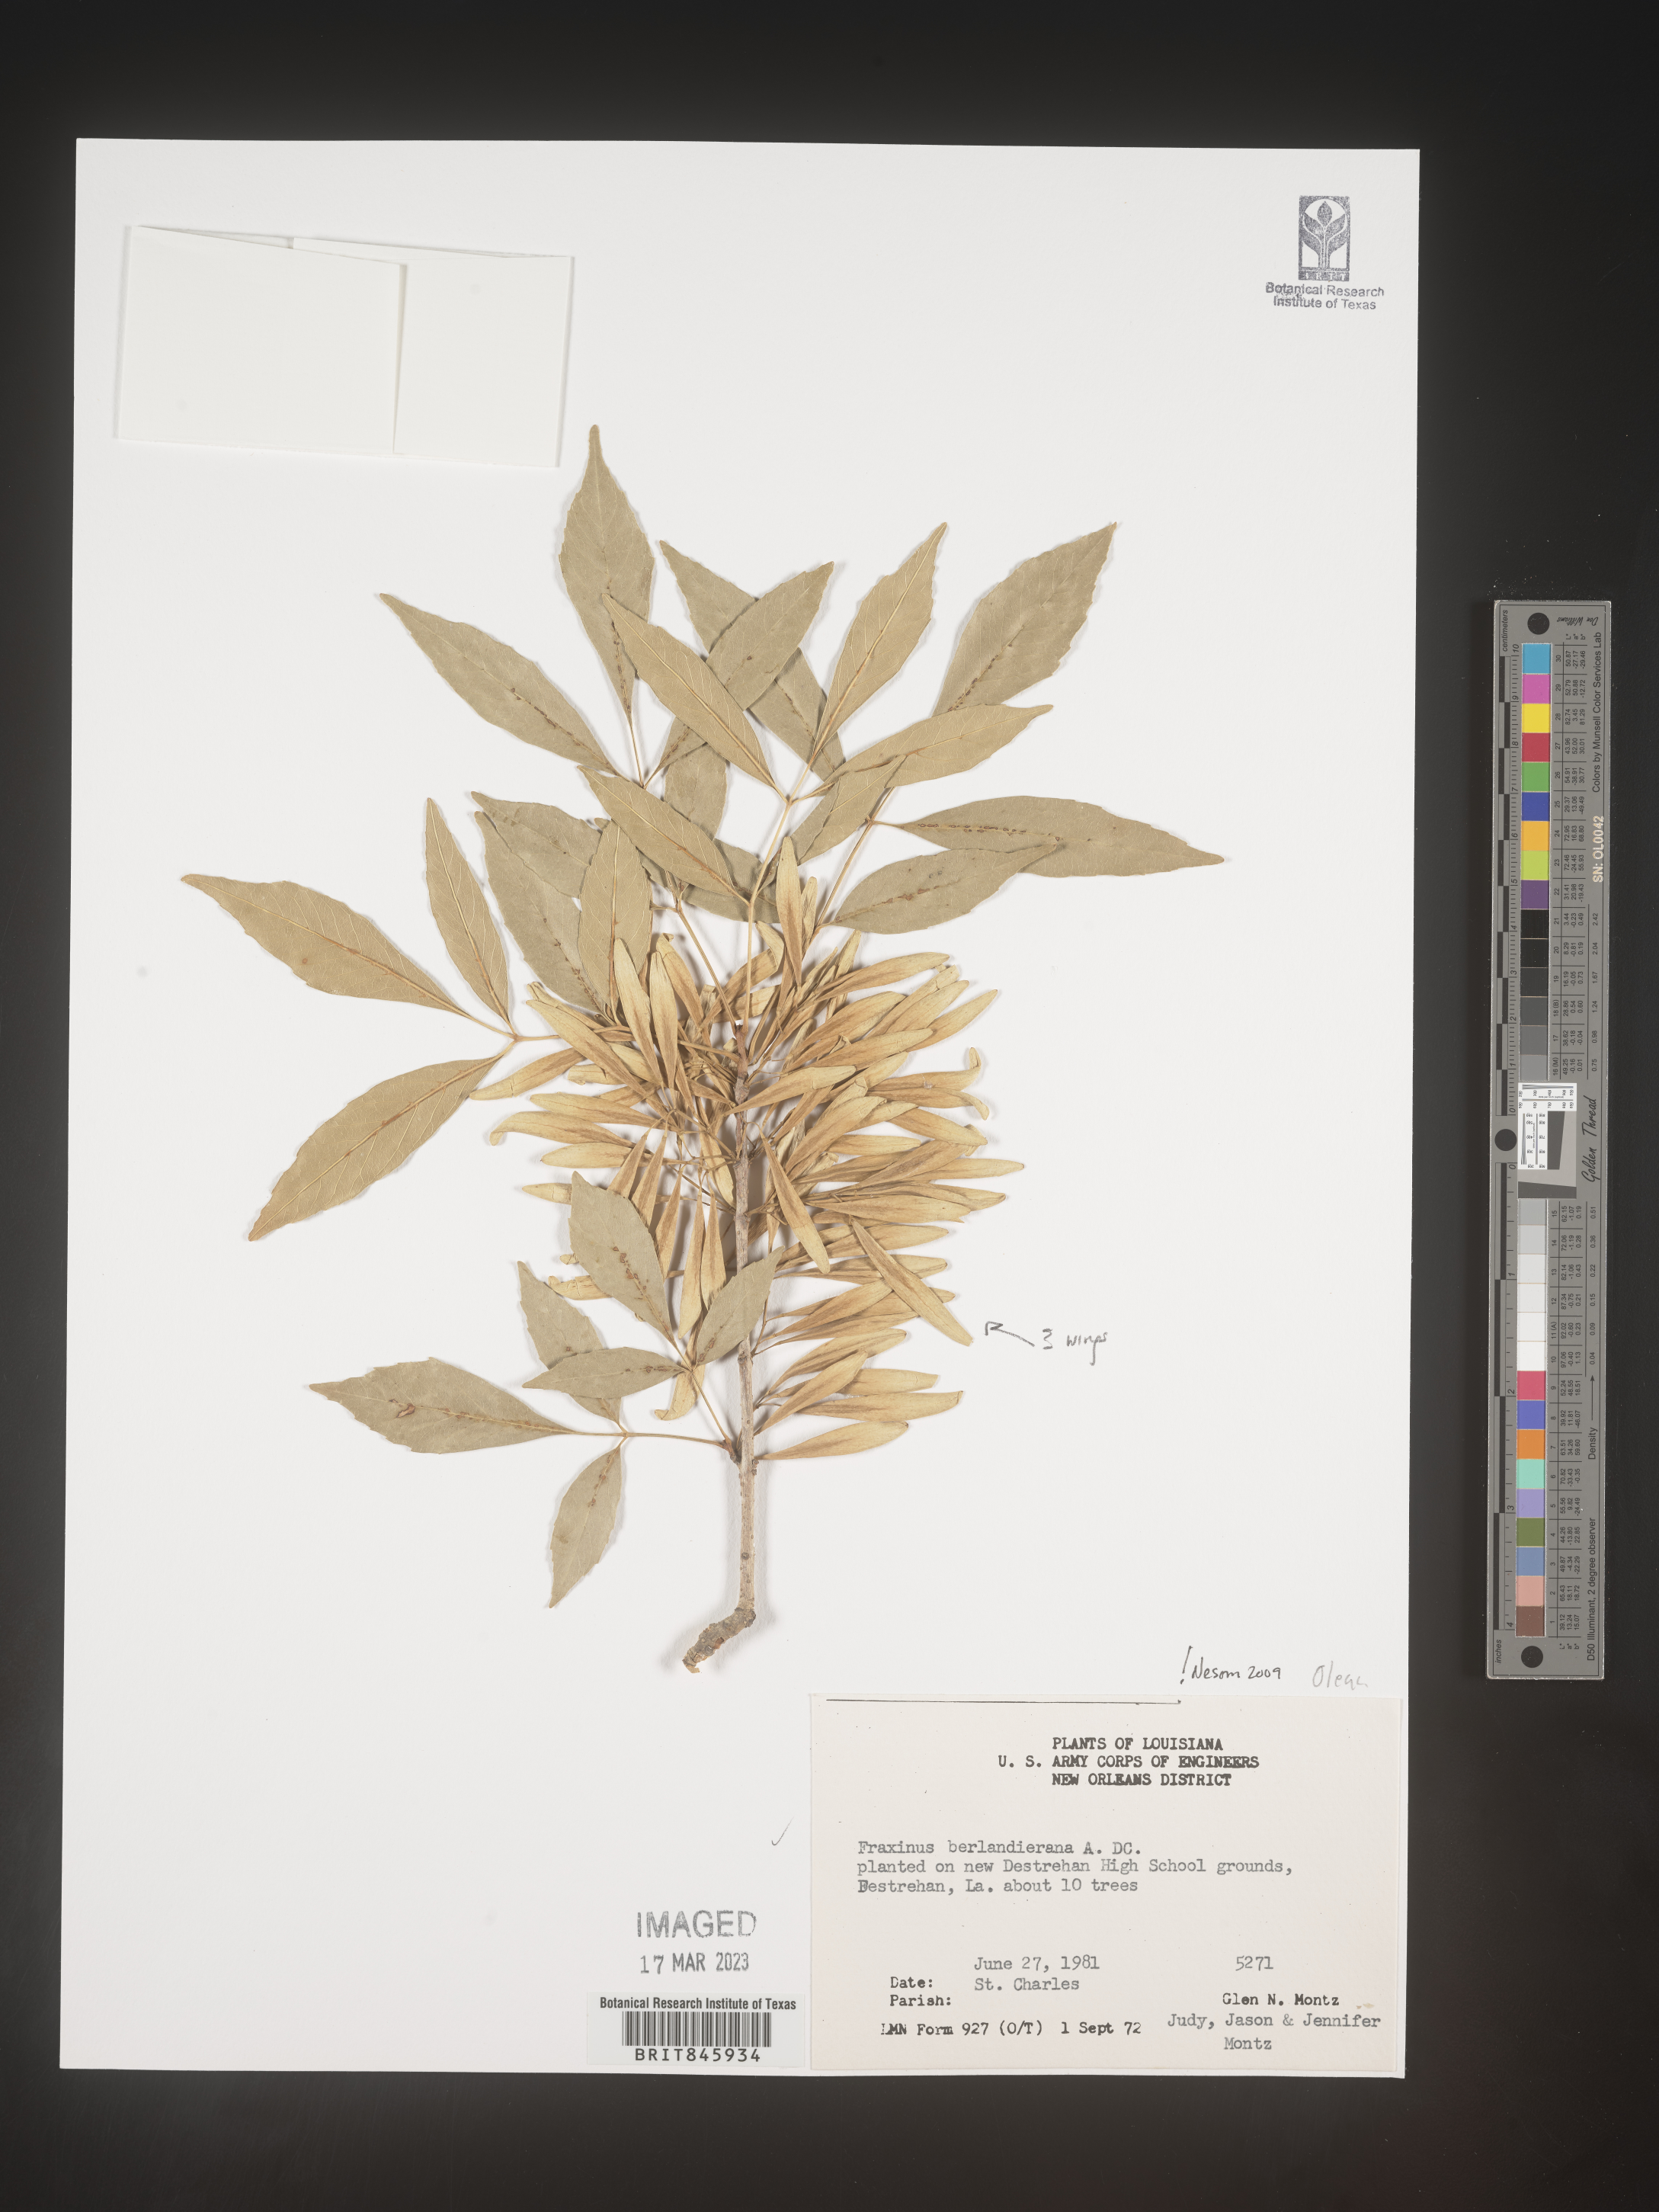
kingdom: Plantae
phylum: Tracheophyta
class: Magnoliopsida
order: Lamiales
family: Oleaceae
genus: Fraxinus
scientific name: Fraxinus berlandieriana
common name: Berlandier ash
